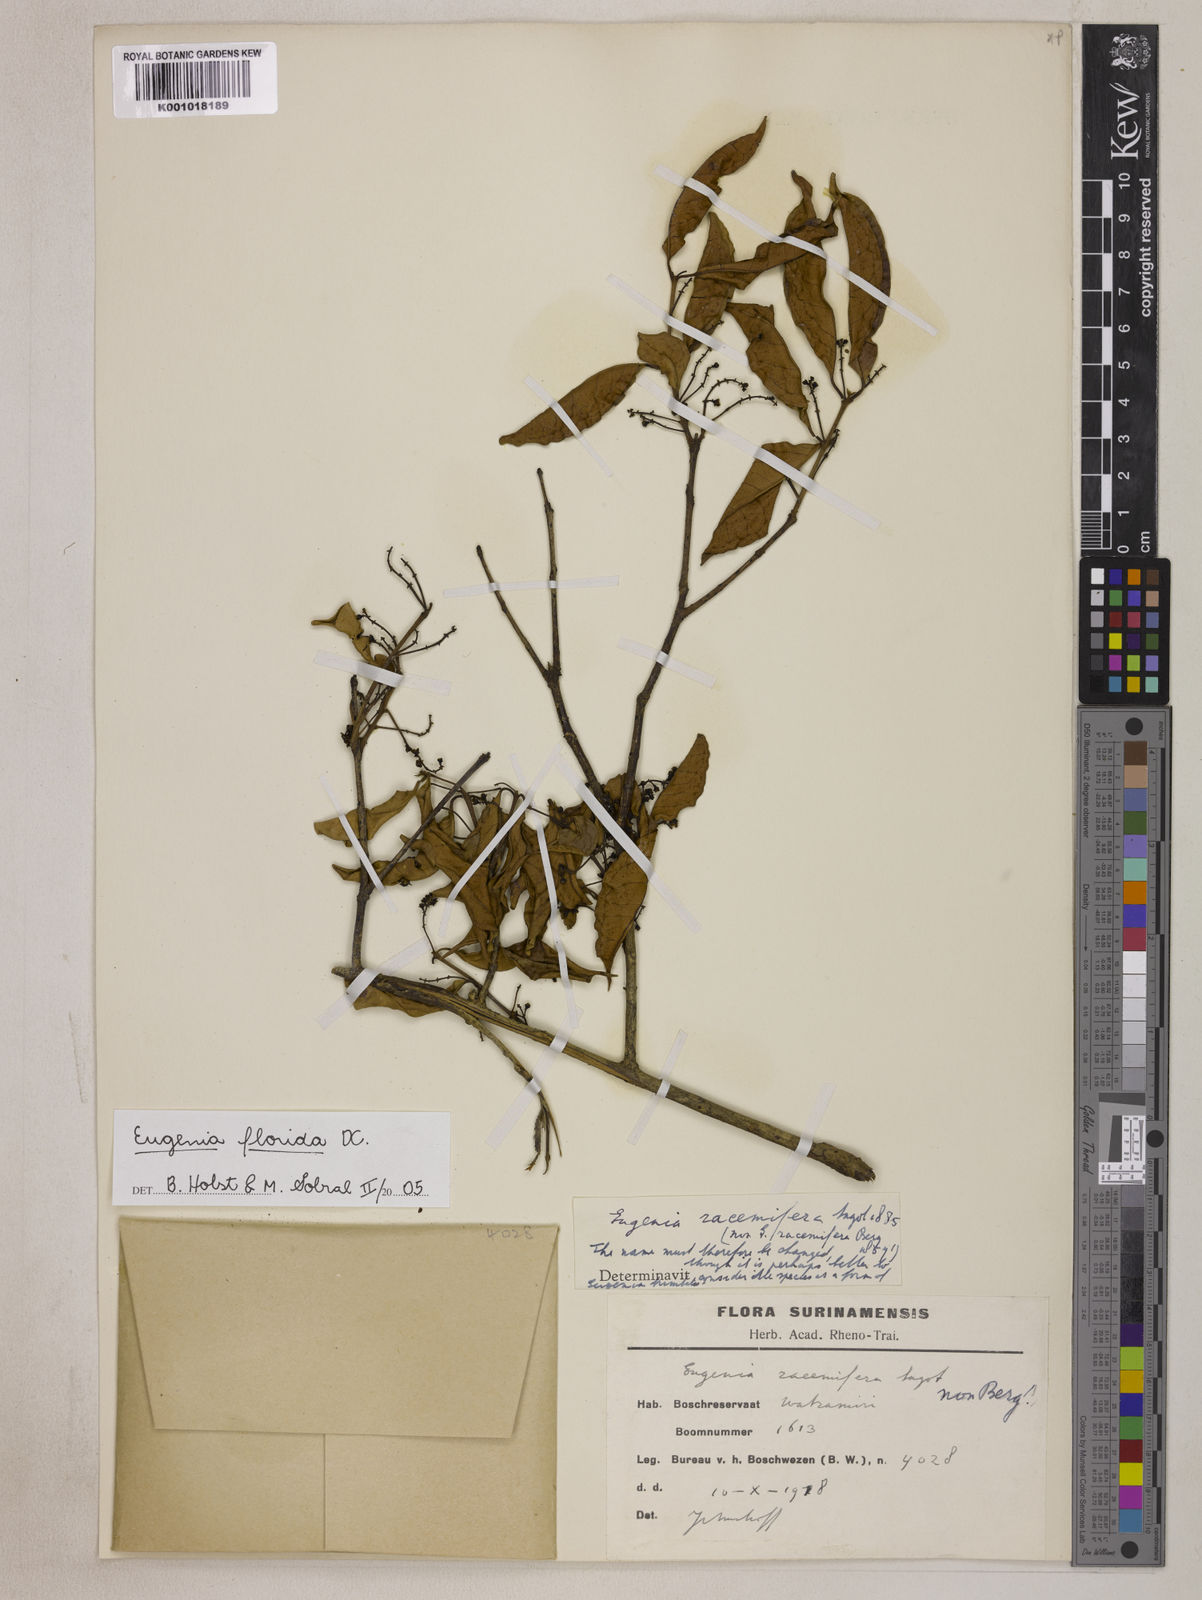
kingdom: Plantae
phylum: Tracheophyta
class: Magnoliopsida
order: Myrtales
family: Myrtaceae
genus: Eugenia
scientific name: Eugenia florida
